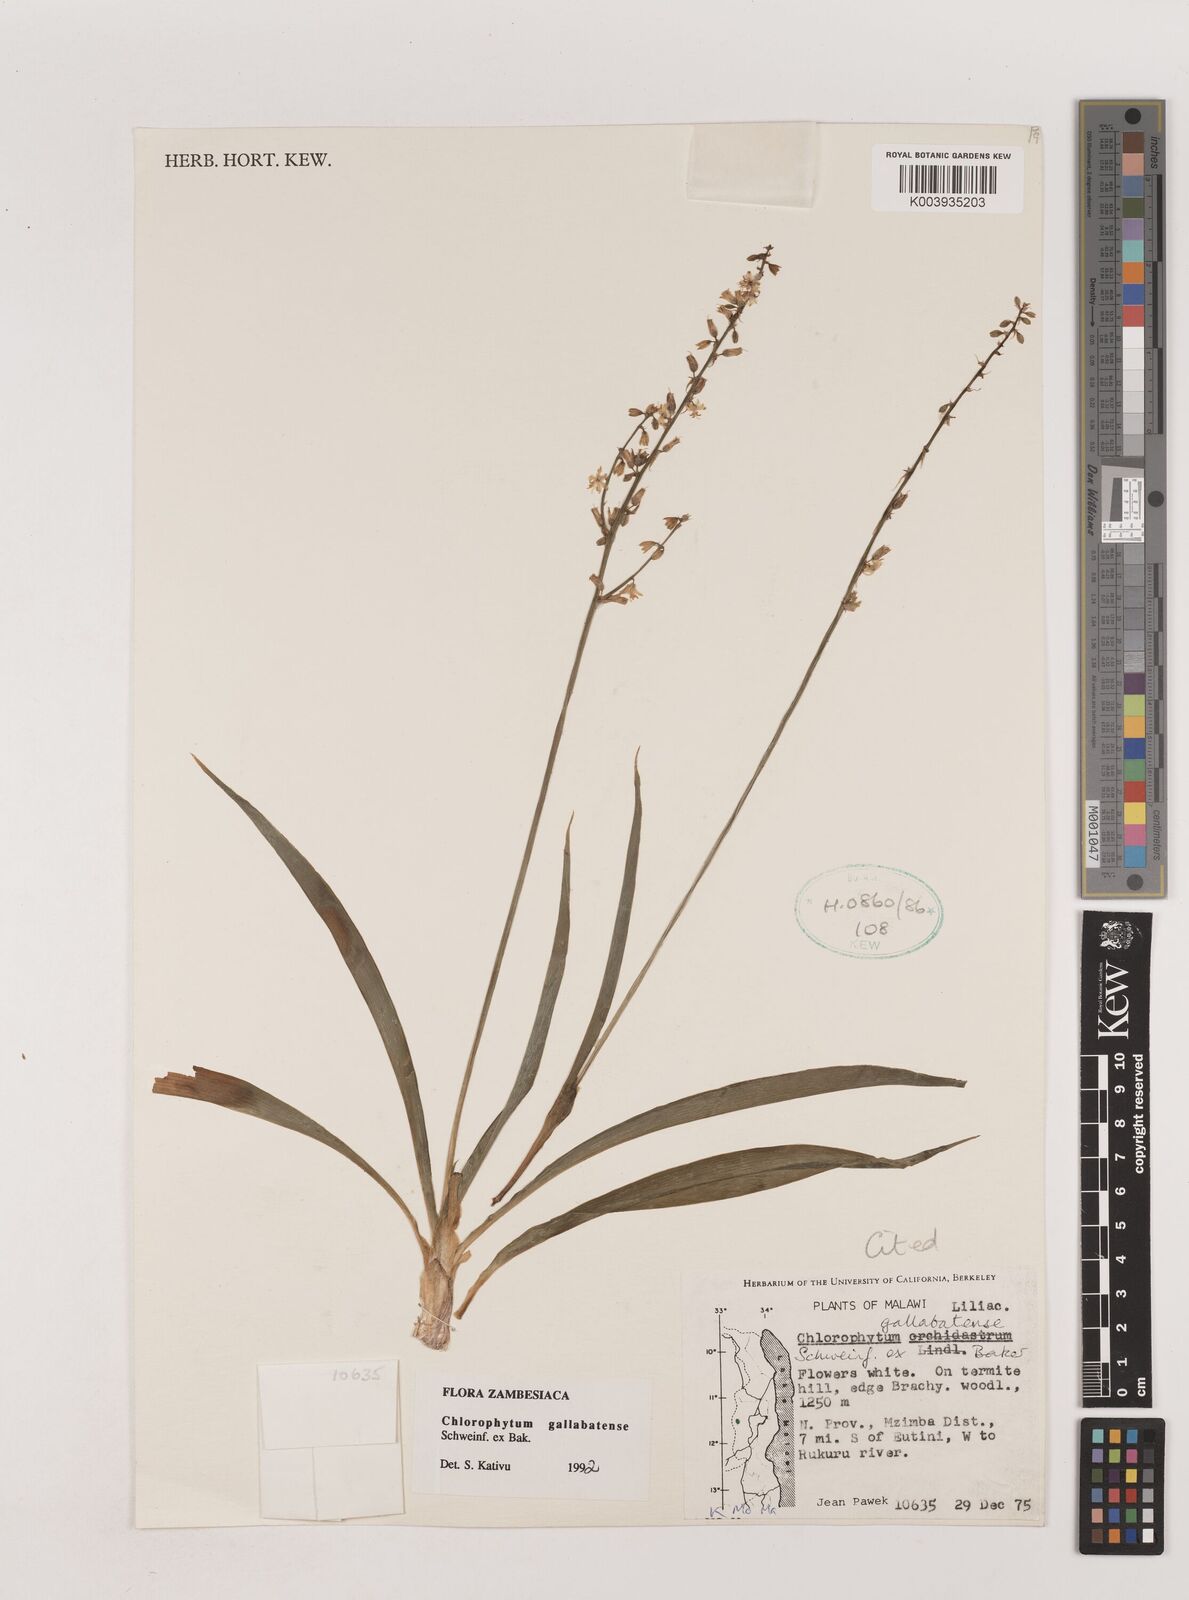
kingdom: Plantae
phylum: Tracheophyta
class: Liliopsida
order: Asparagales
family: Asparagaceae
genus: Chlorophytum
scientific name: Chlorophytum gallabatense
